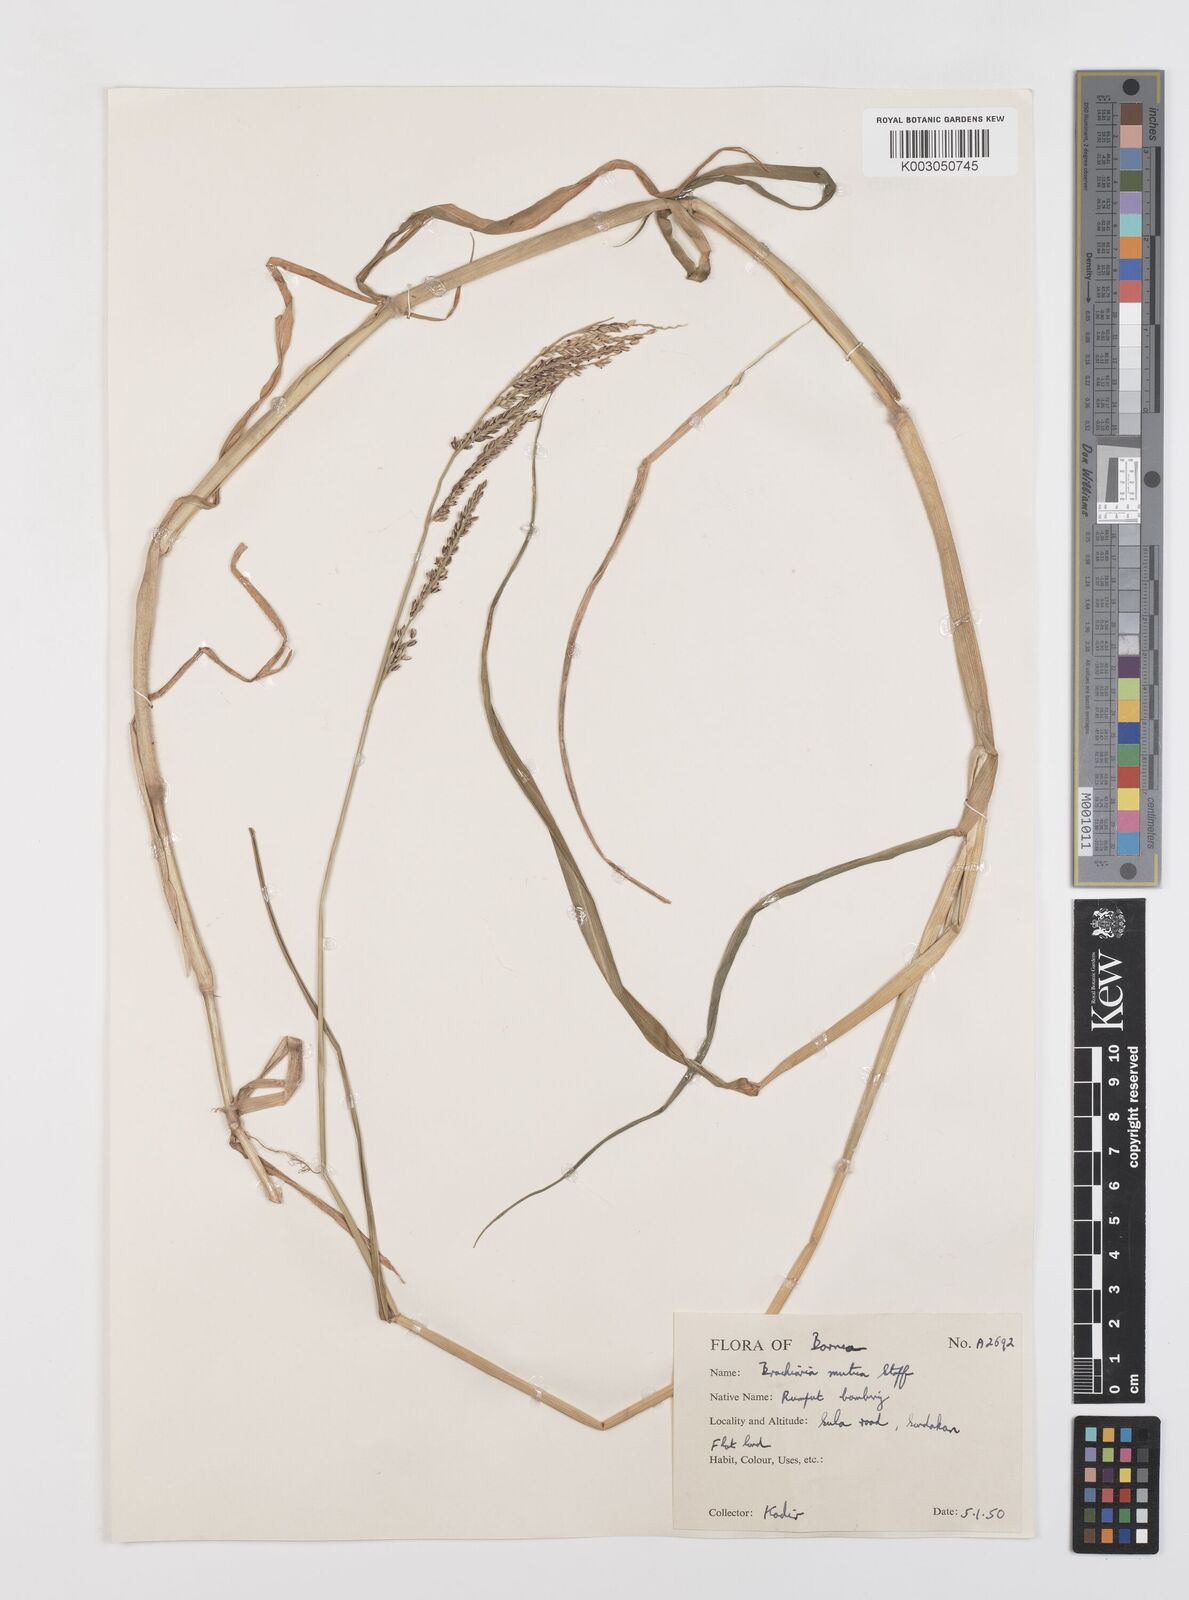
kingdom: Plantae
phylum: Tracheophyta
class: Liliopsida
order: Poales
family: Poaceae
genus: Urochloa
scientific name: Urochloa mutica
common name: Para grass
